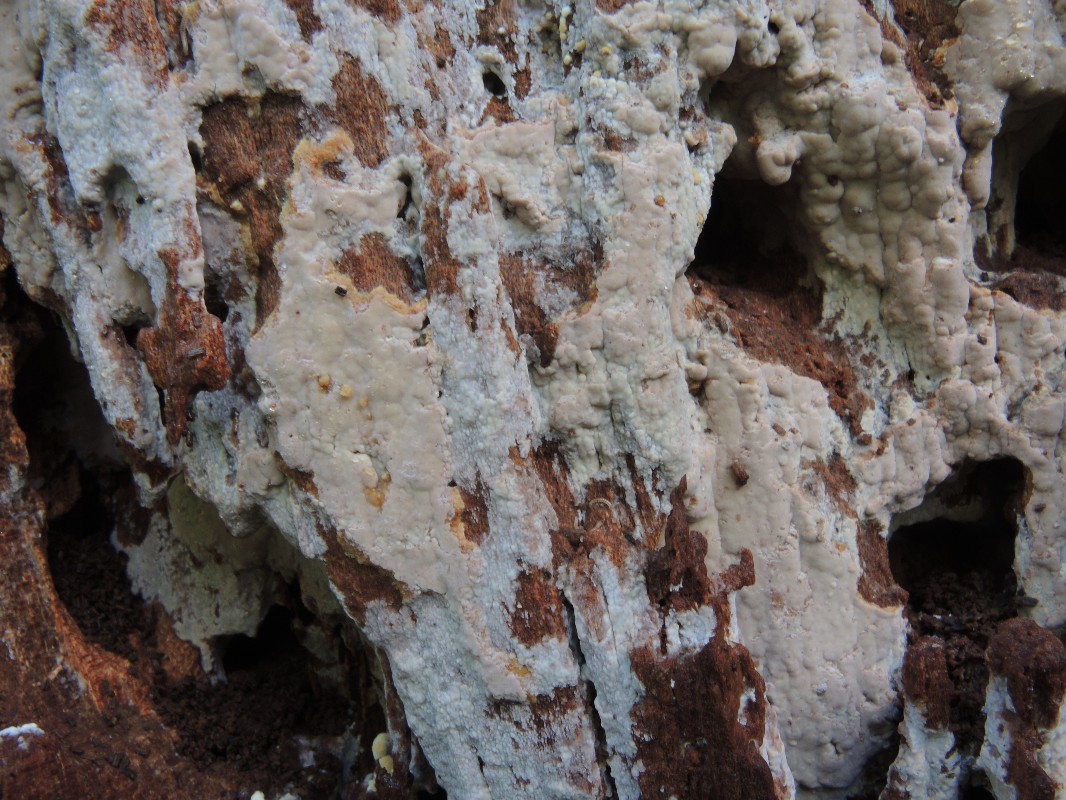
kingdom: Fungi
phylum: Basidiomycota
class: Agaricomycetes
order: Russulales
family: Peniophoraceae
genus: Gloiothele
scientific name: Gloiothele lactescens
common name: bitter olieskind
